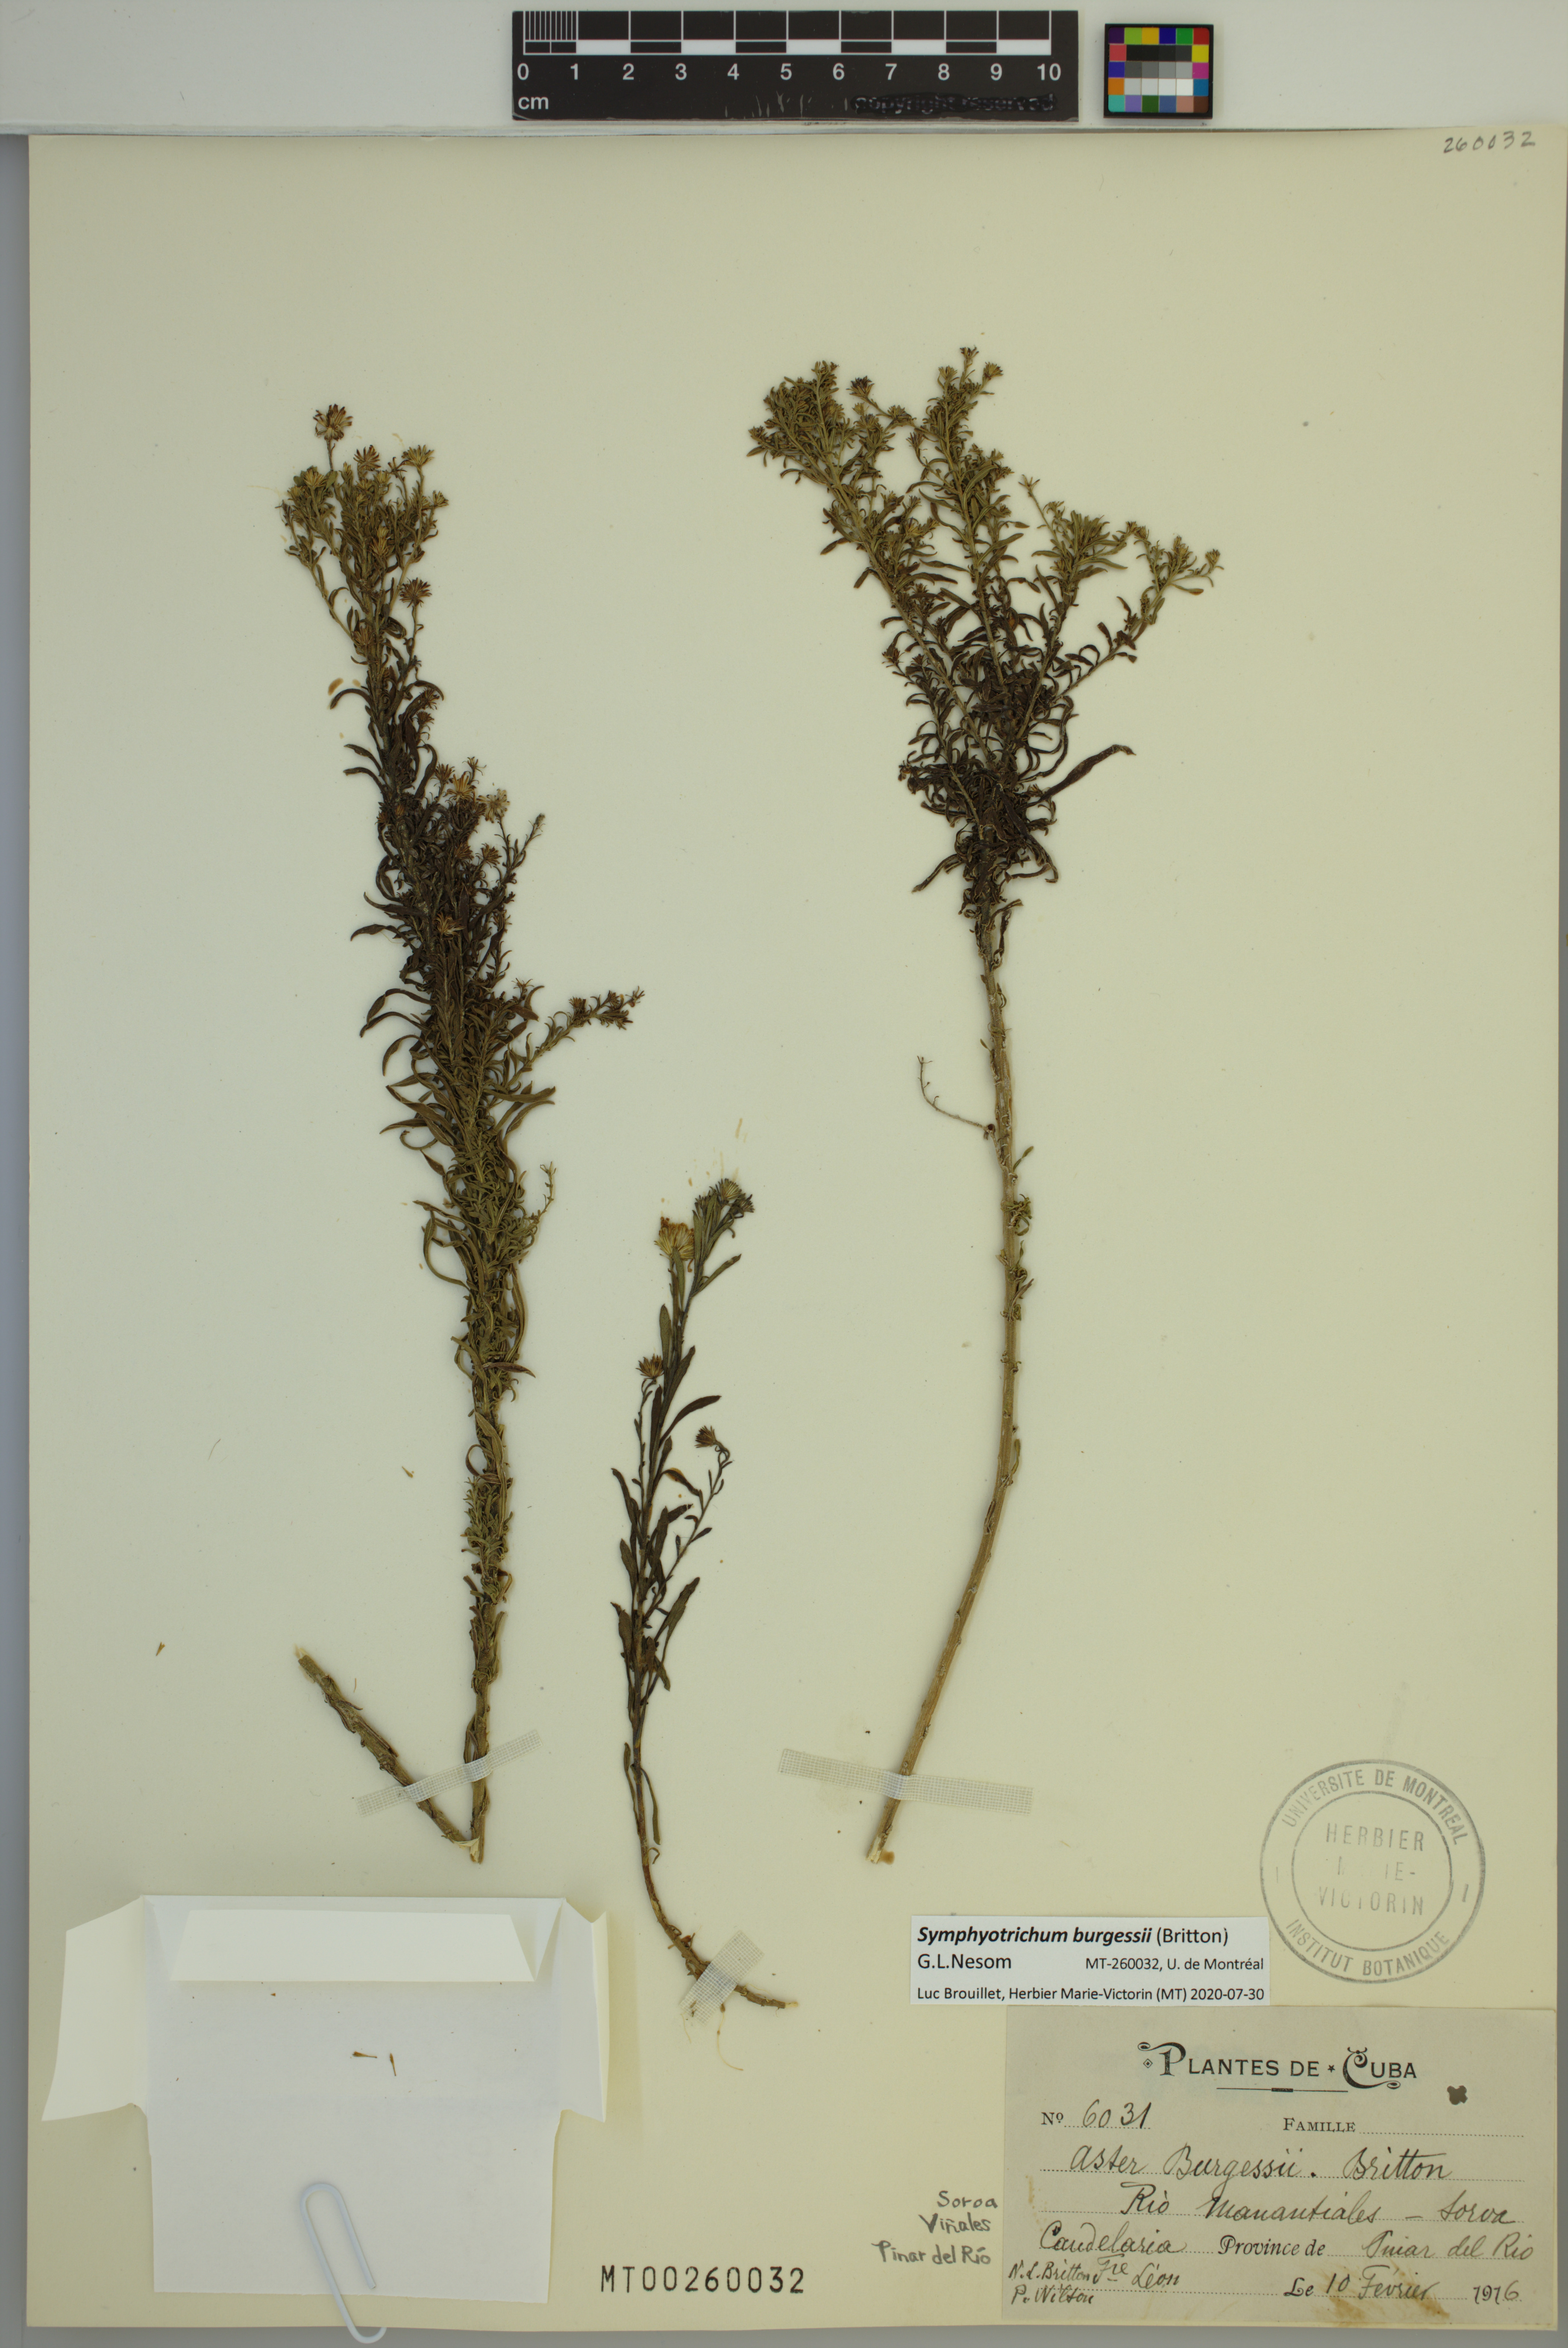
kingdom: Plantae
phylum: Tracheophyta
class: Magnoliopsida
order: Asterales
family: Asteraceae
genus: Symphyotrichum
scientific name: Symphyotrichum burgessii
